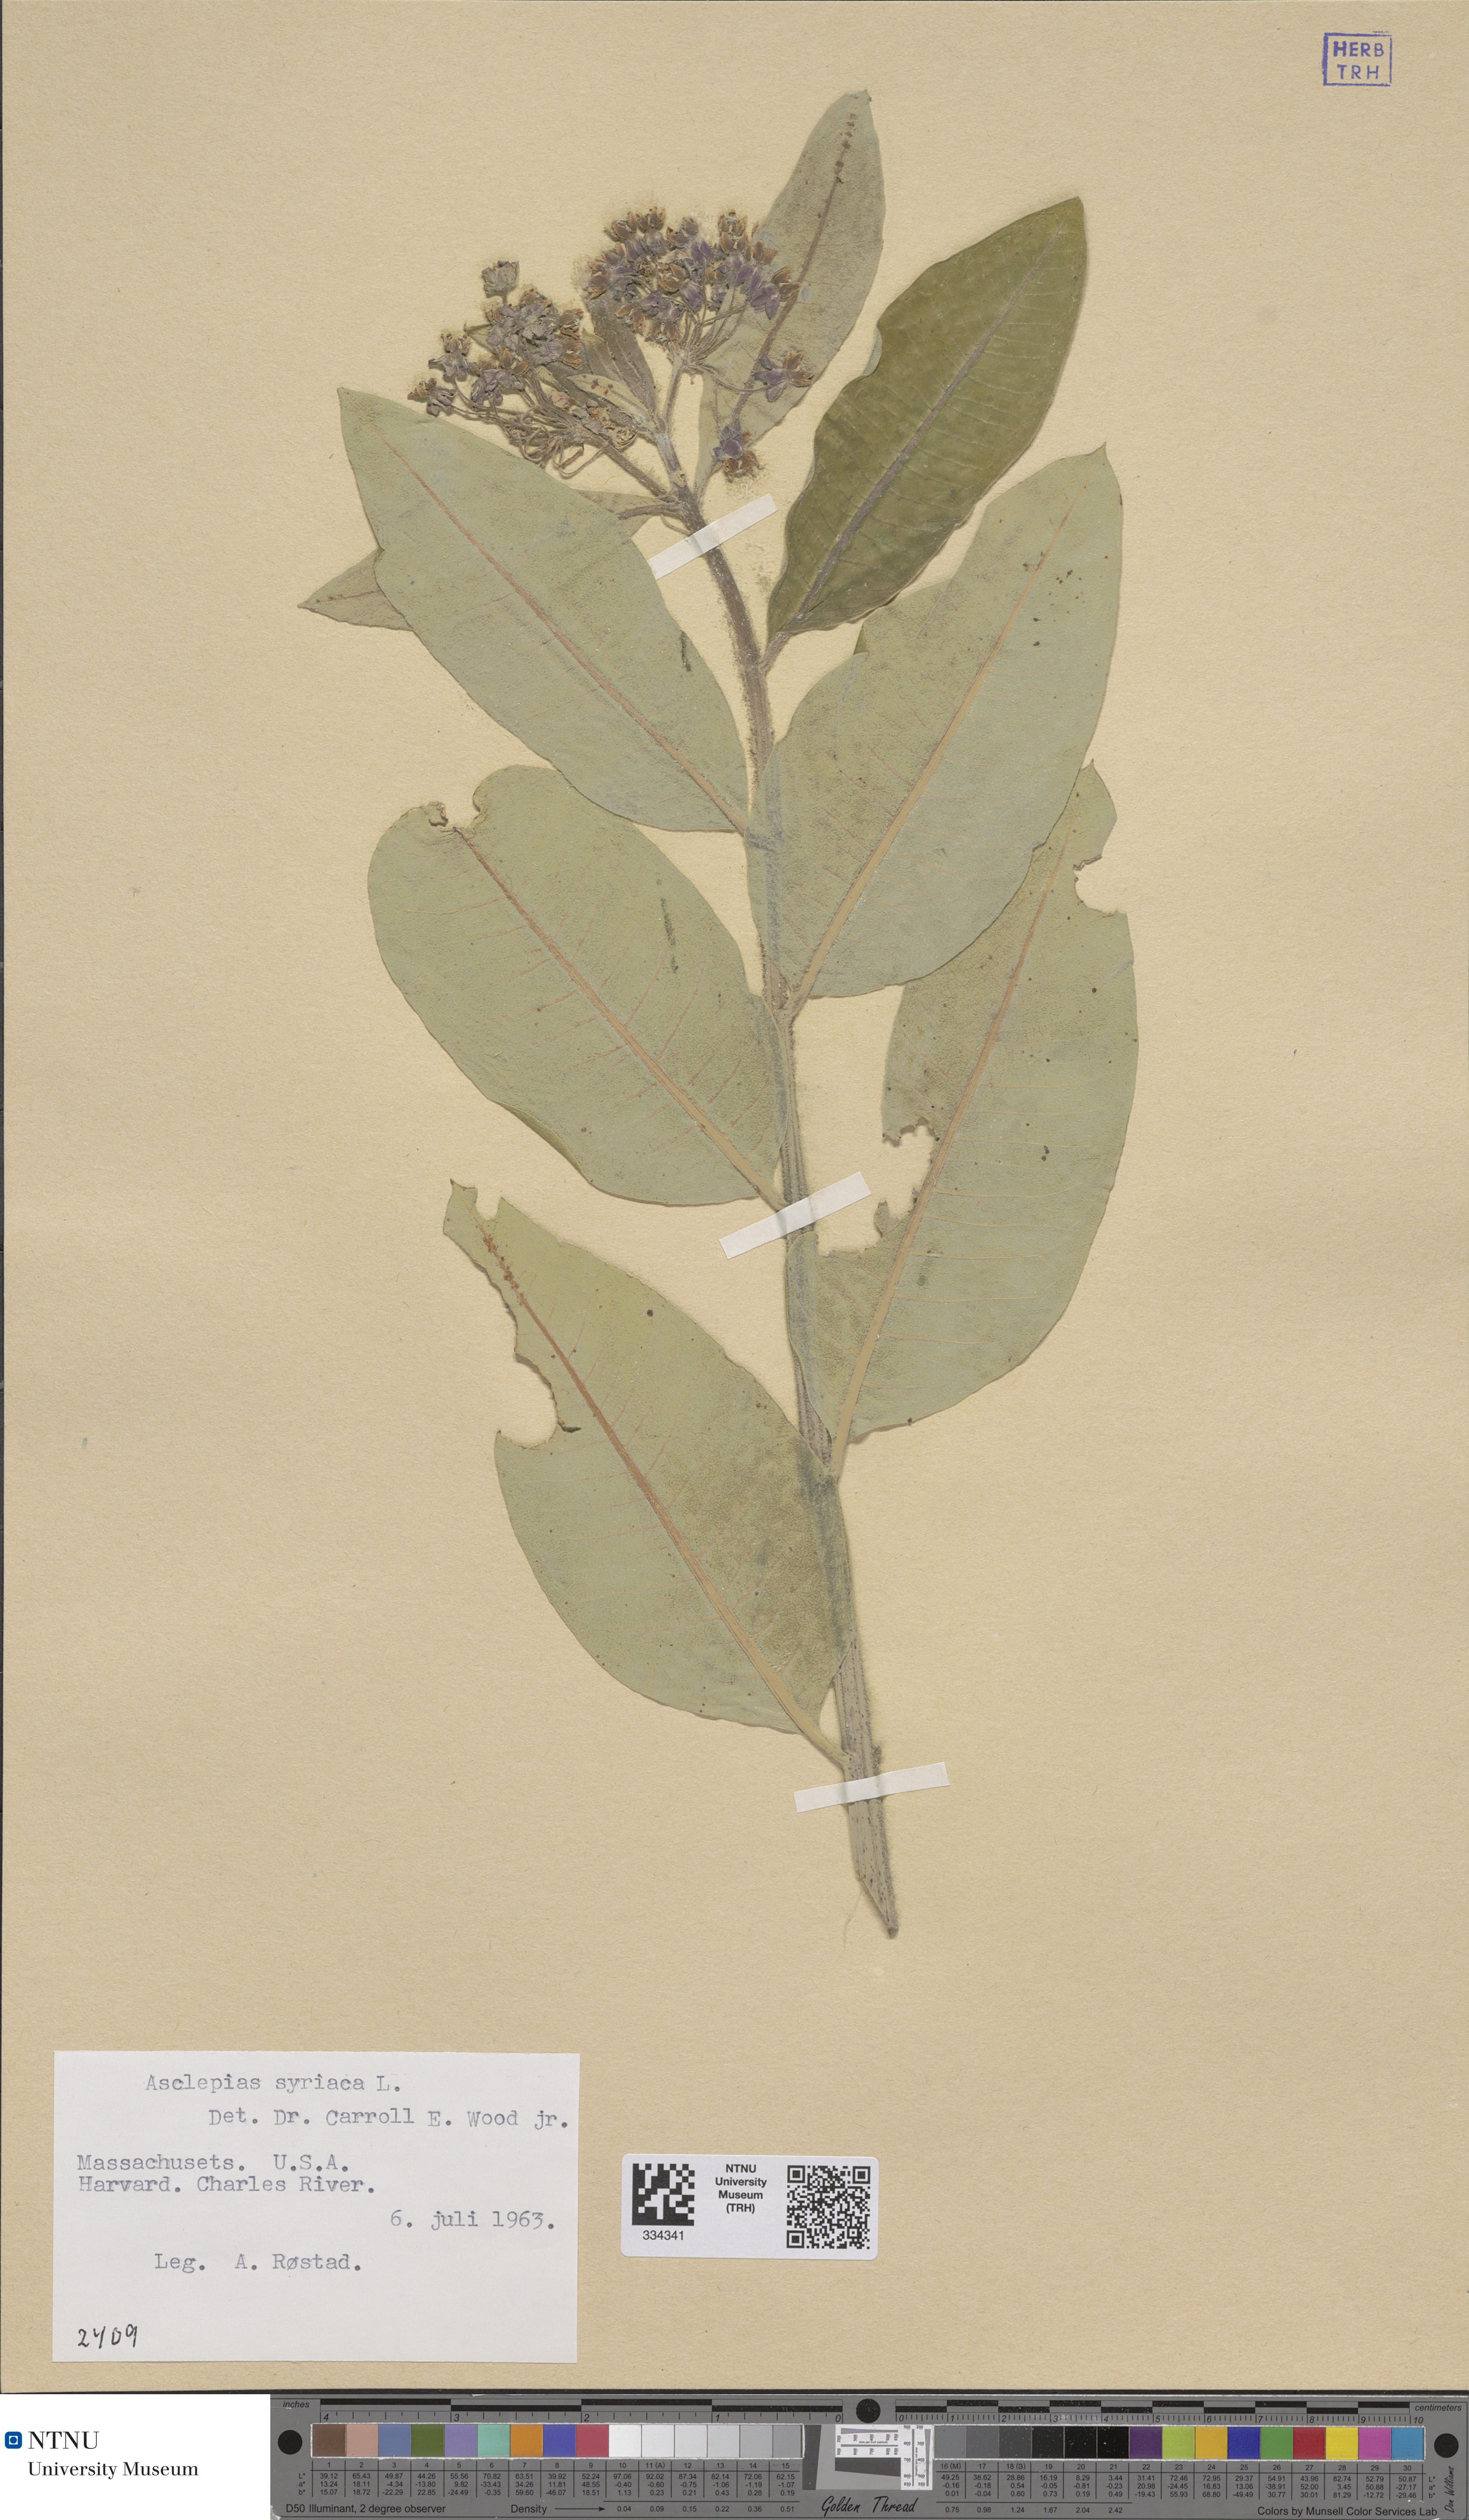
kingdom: Plantae
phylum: Tracheophyta
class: Magnoliopsida
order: Gentianales
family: Apocynaceae
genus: Asclepias
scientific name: Asclepias syriaca
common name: Common milkweed
